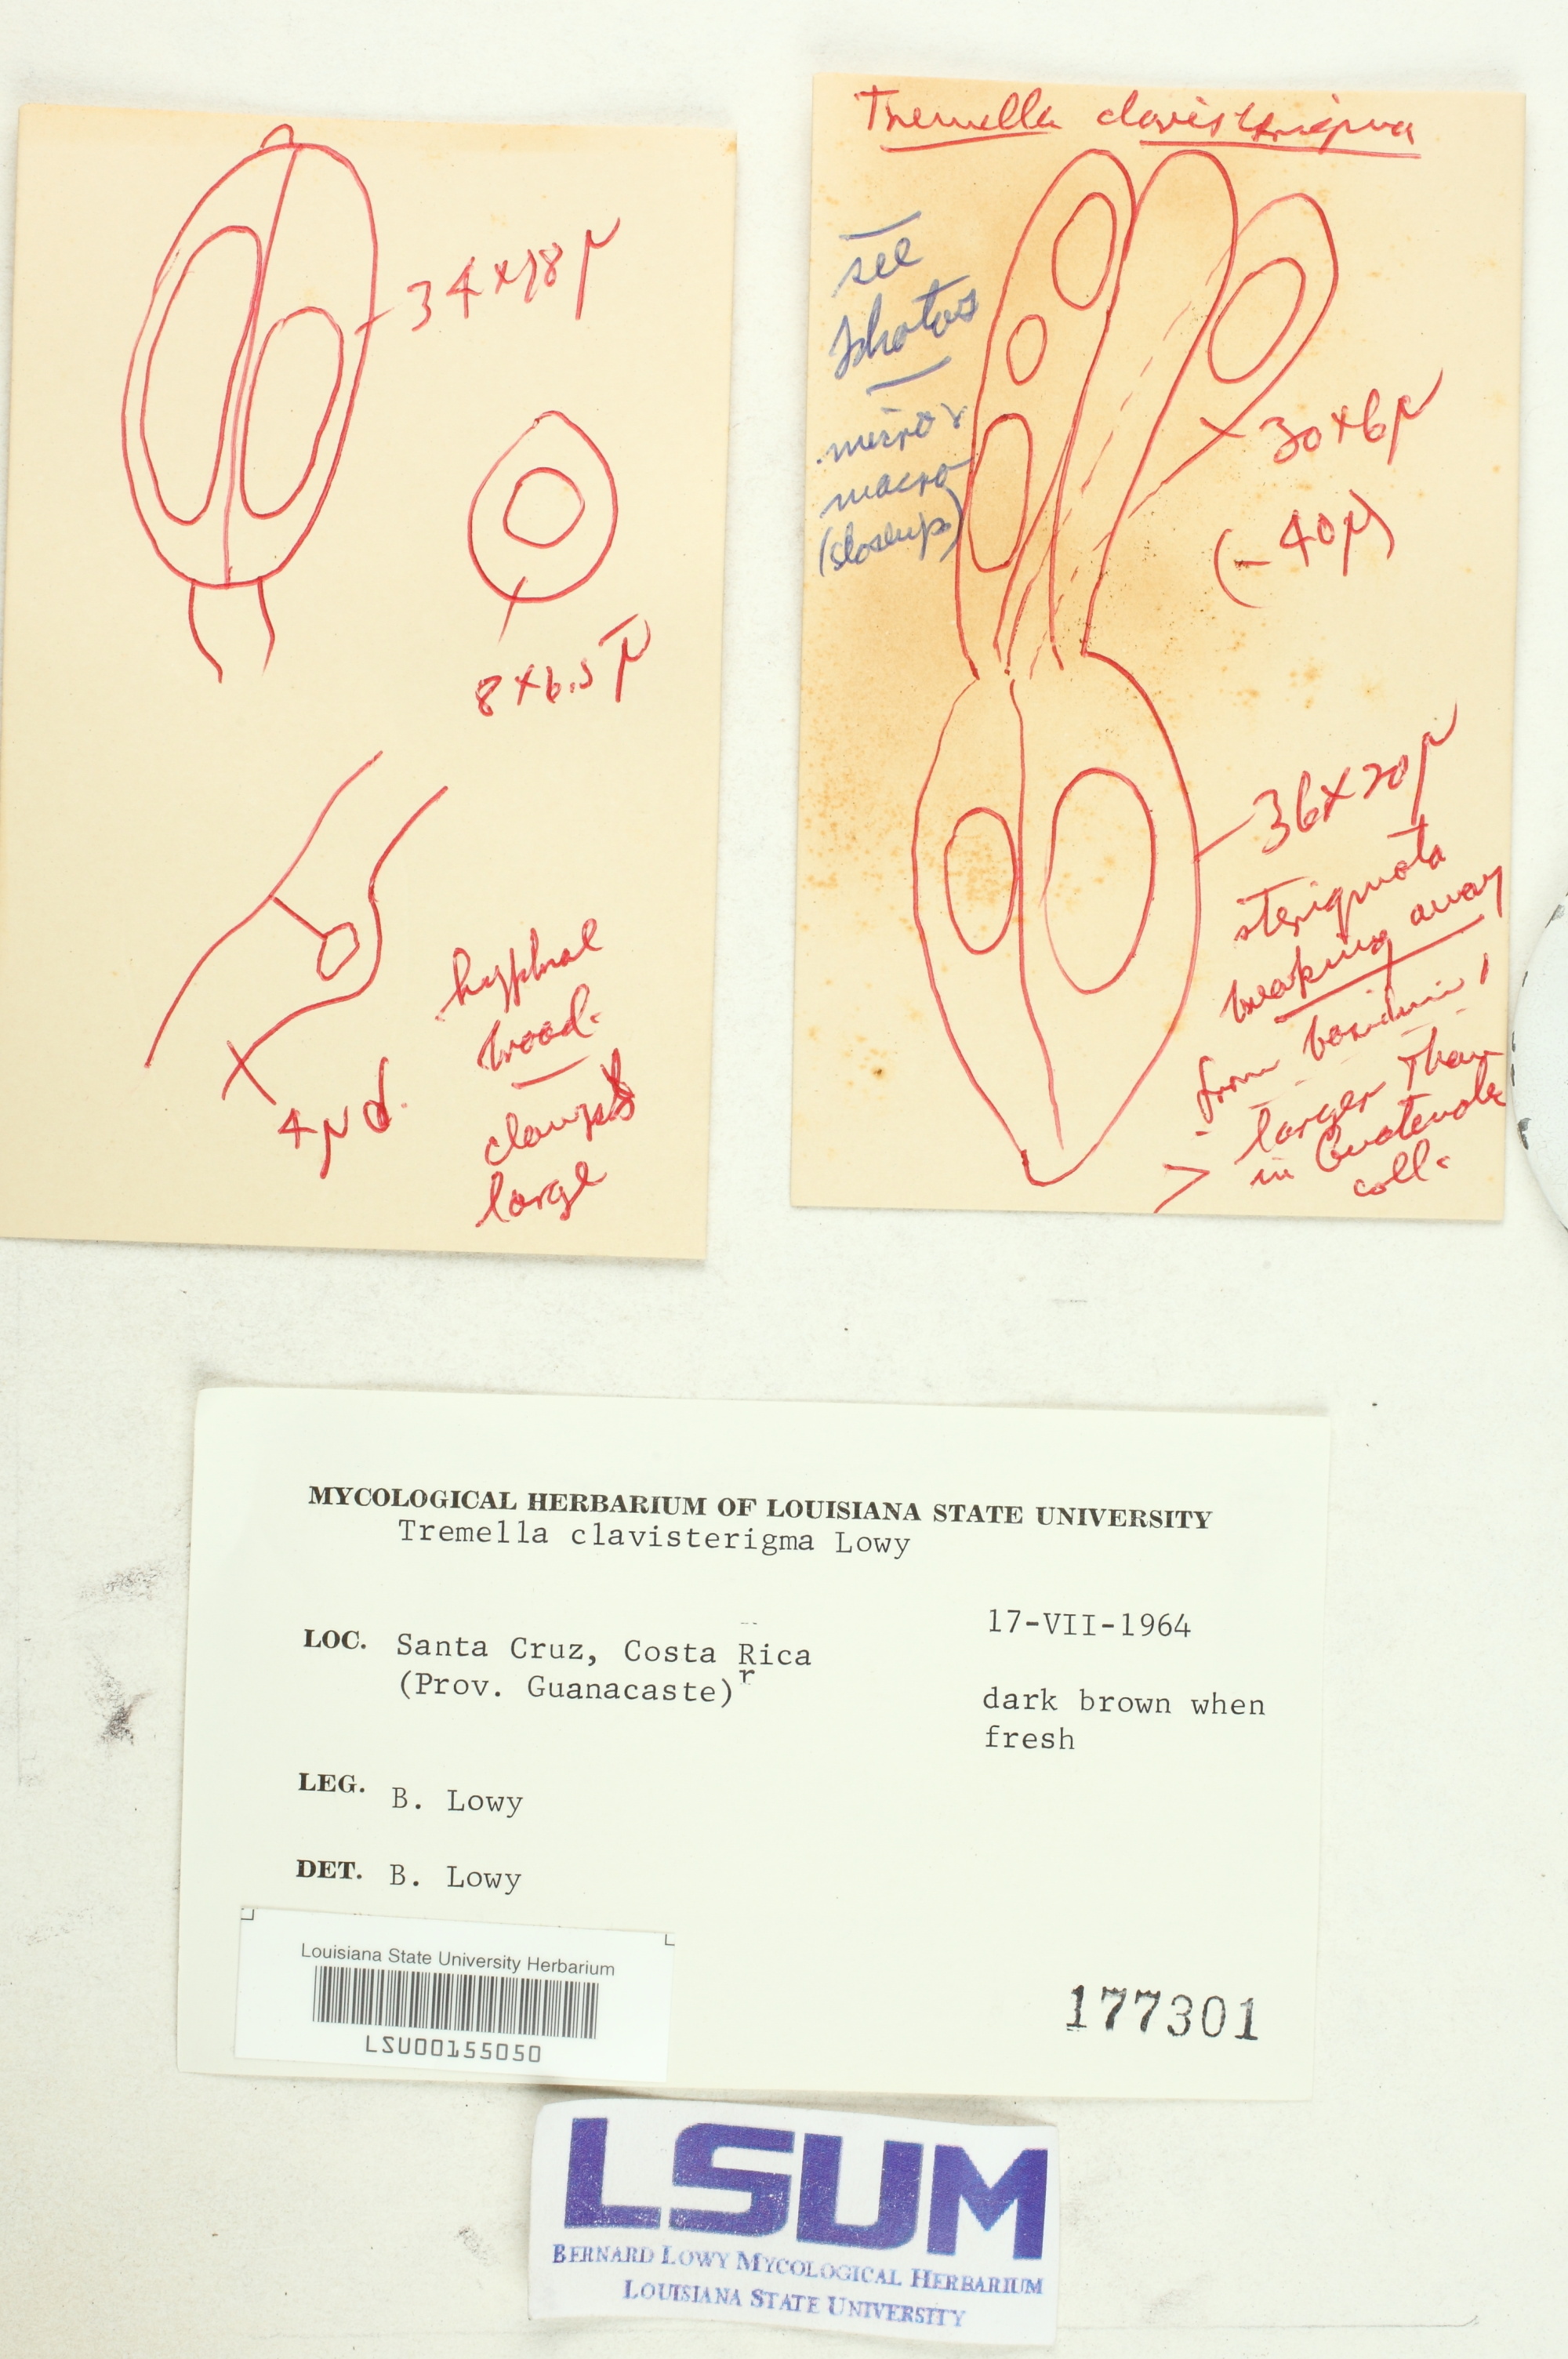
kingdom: Fungi
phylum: Basidiomycota
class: Tremellomycetes
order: Tremellales
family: Tremellaceae
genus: Tremella
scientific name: Tremella clavisterigma
